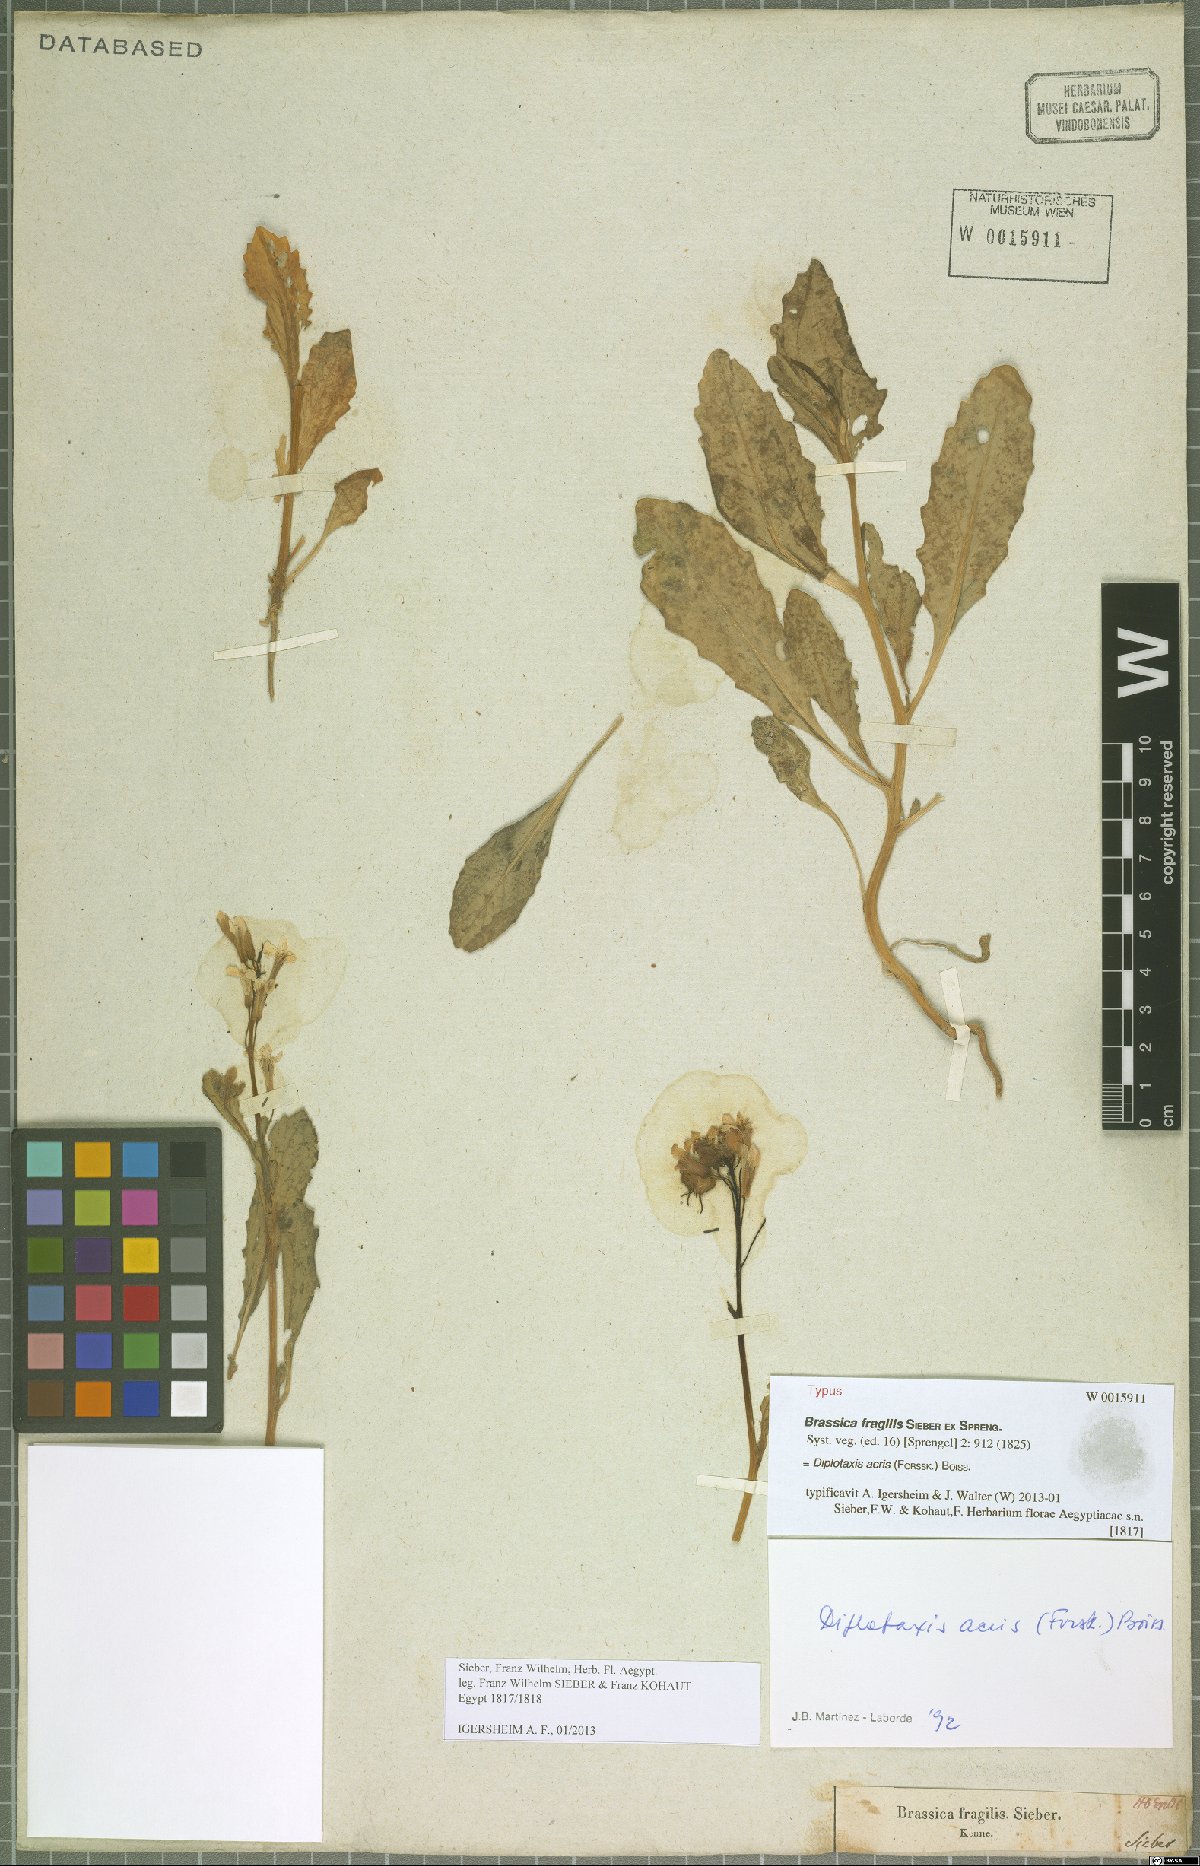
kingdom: Plantae
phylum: Tracheophyta
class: Magnoliopsida
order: Brassicales
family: Brassicaceae
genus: Diplotaxis
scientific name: Diplotaxis acris
